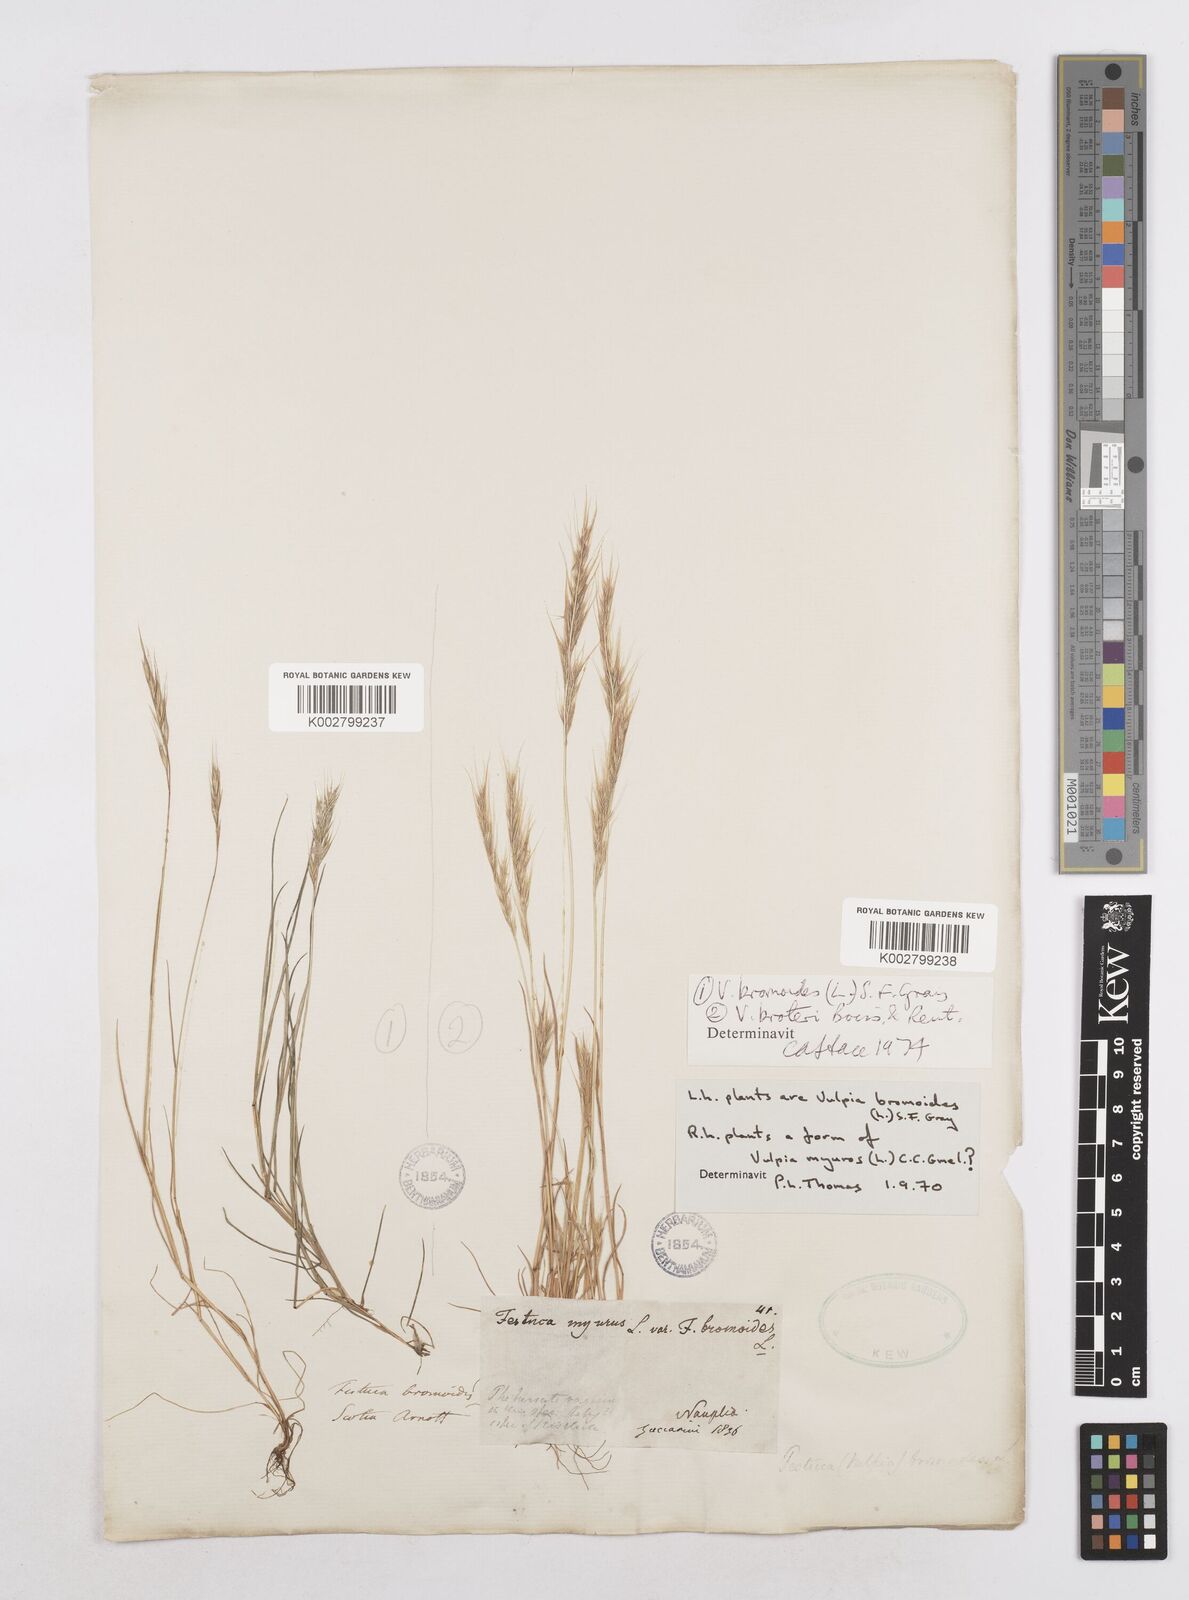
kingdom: Plantae
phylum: Tracheophyta
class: Liliopsida
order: Poales
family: Poaceae
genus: Festuca
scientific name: Festuca bromoides
